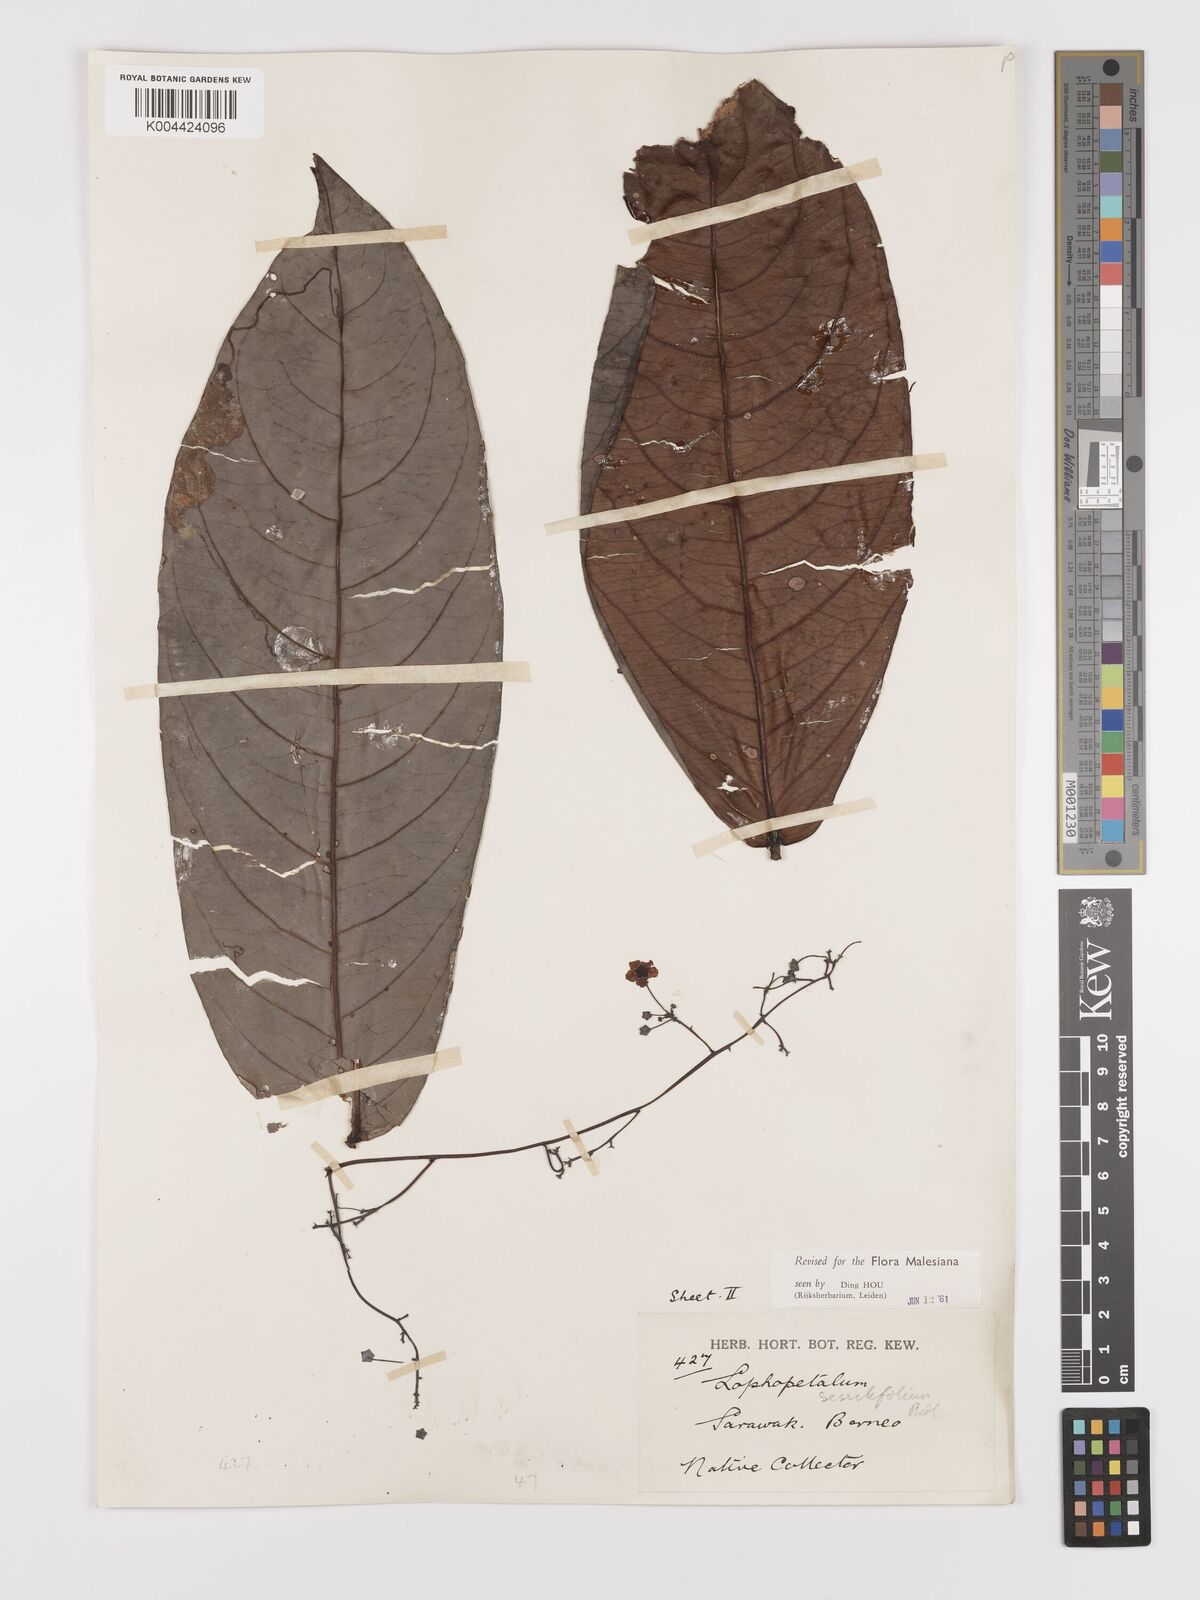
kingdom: Plantae
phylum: Tracheophyta
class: Magnoliopsida
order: Celastrales
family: Celastraceae
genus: Lophopetalum
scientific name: Lophopetalum sessilifolium
